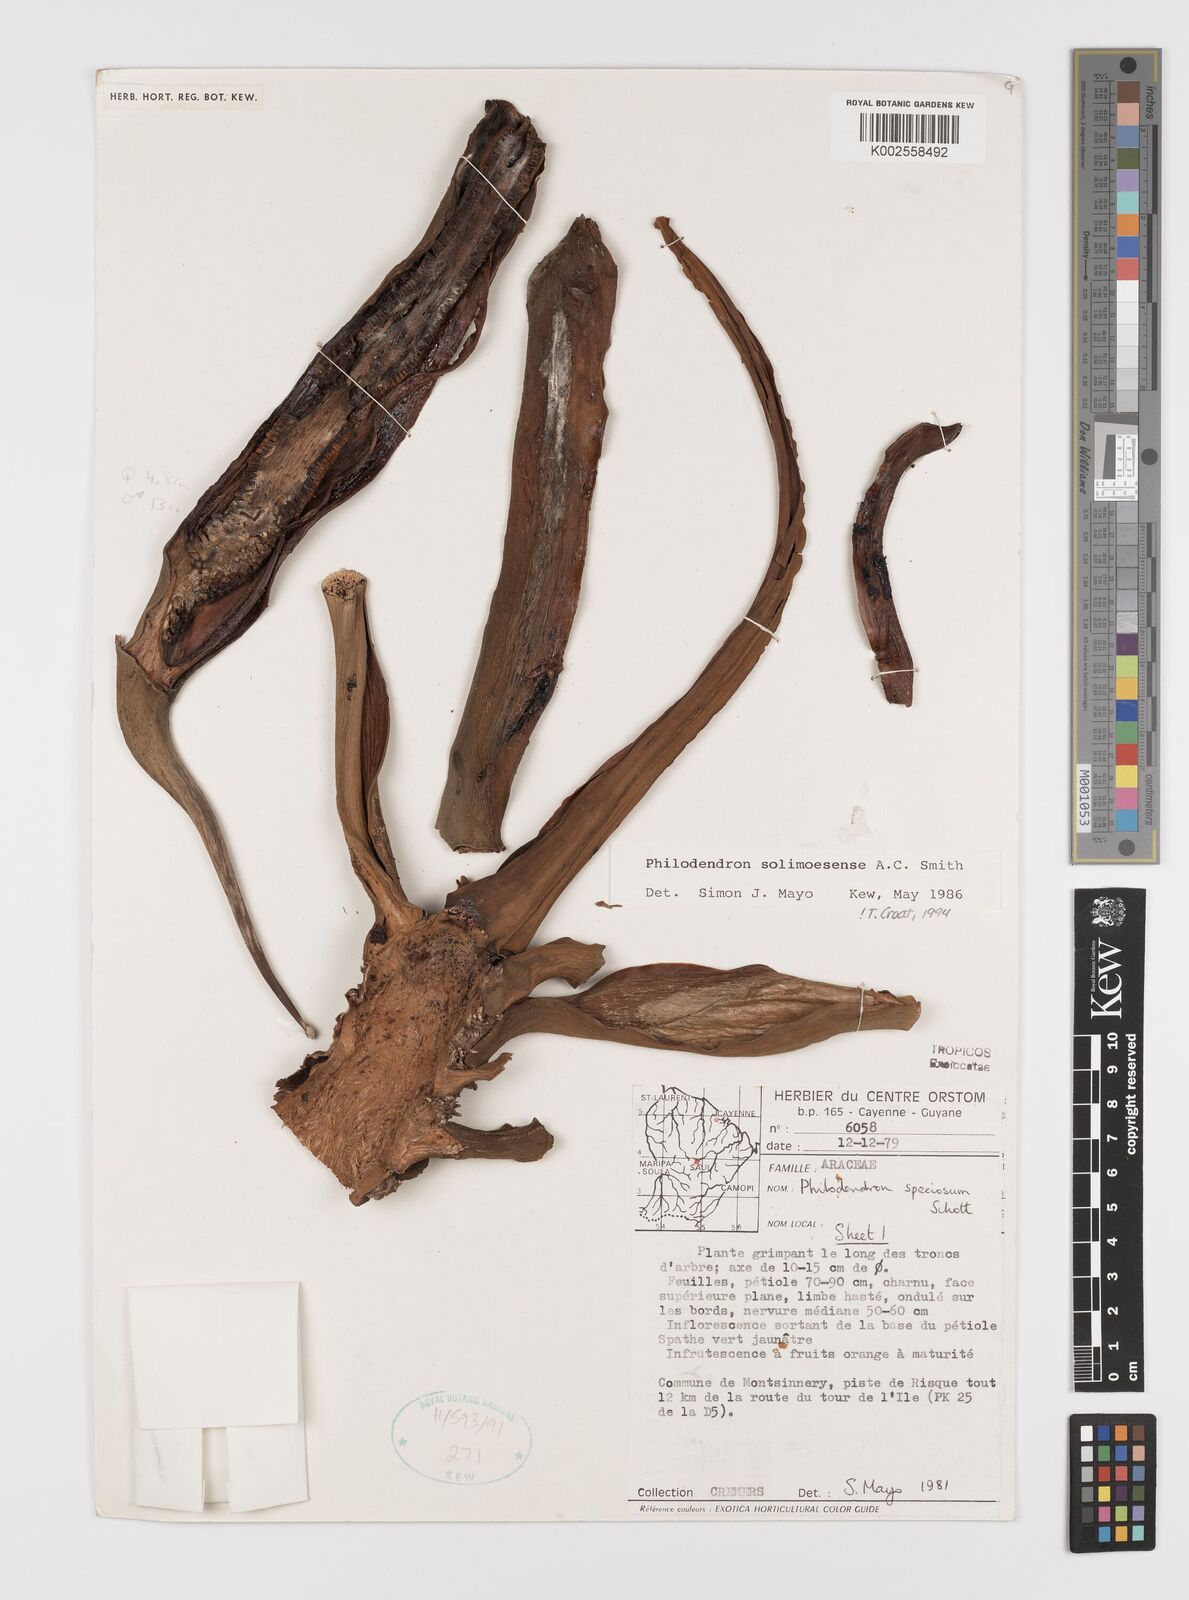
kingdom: Plantae
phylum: Tracheophyta
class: Liliopsida
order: Alismatales
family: Araceae
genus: Thaumatophyllum
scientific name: Thaumatophyllum solimoesense
